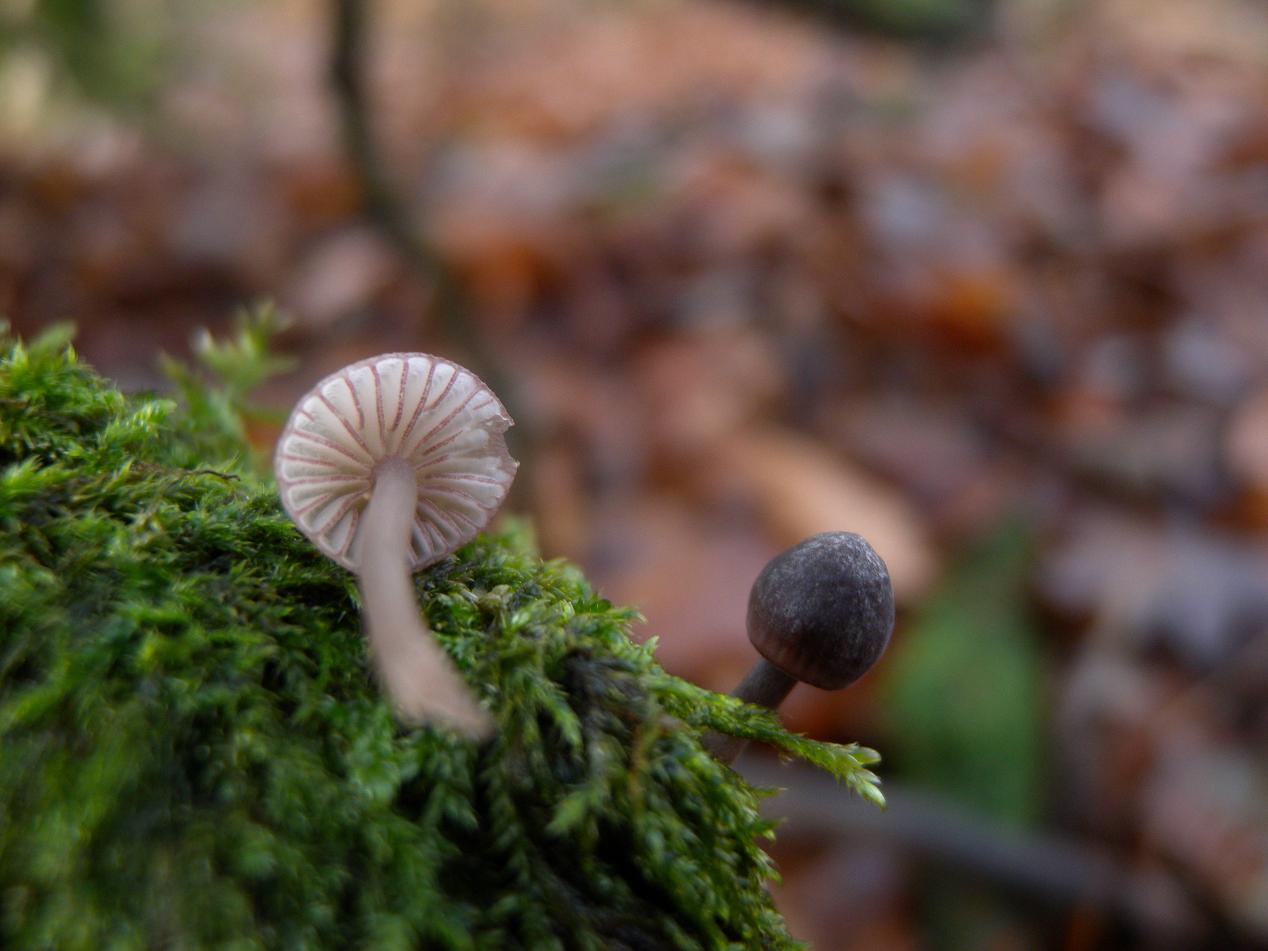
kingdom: Fungi
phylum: Basidiomycota
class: Agaricomycetes
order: Agaricales
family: Mycenaceae
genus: Mycena
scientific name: Mycena rubromarginata
